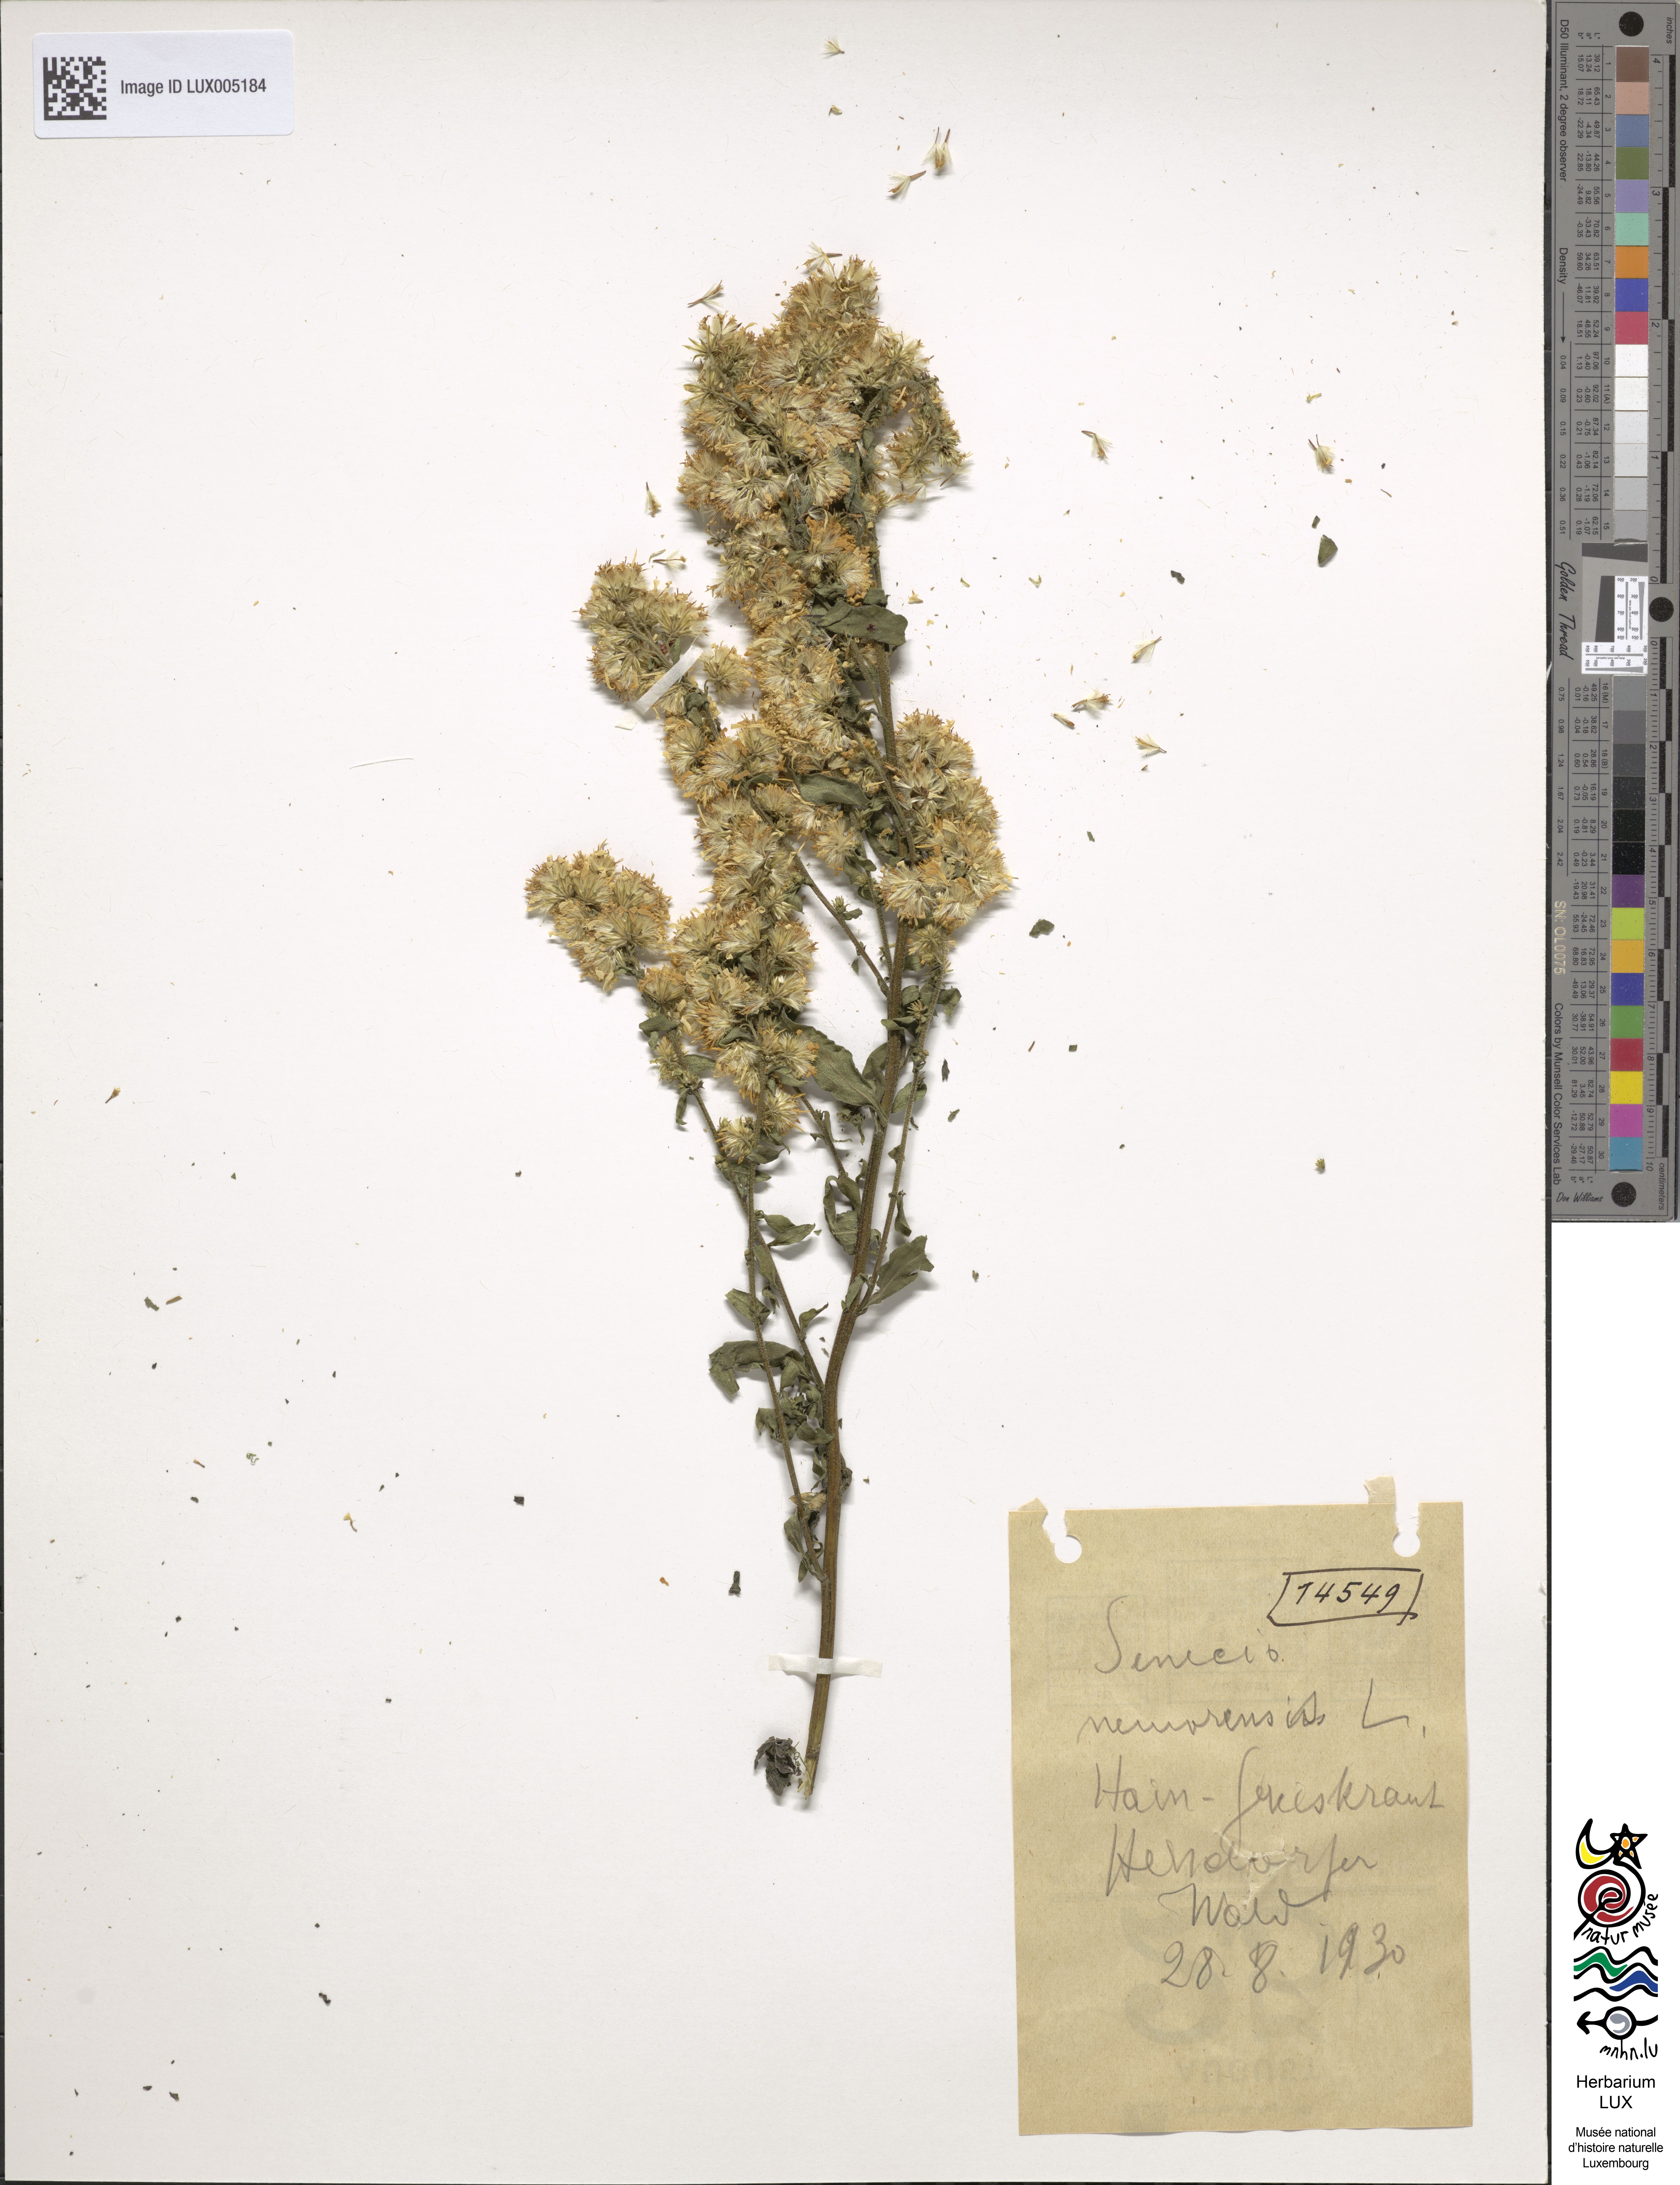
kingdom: Plantae
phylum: Tracheophyta
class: Magnoliopsida
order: Asterales
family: Asteraceae
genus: Senecio
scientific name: Senecio nemorensis
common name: Alpine ragwort
